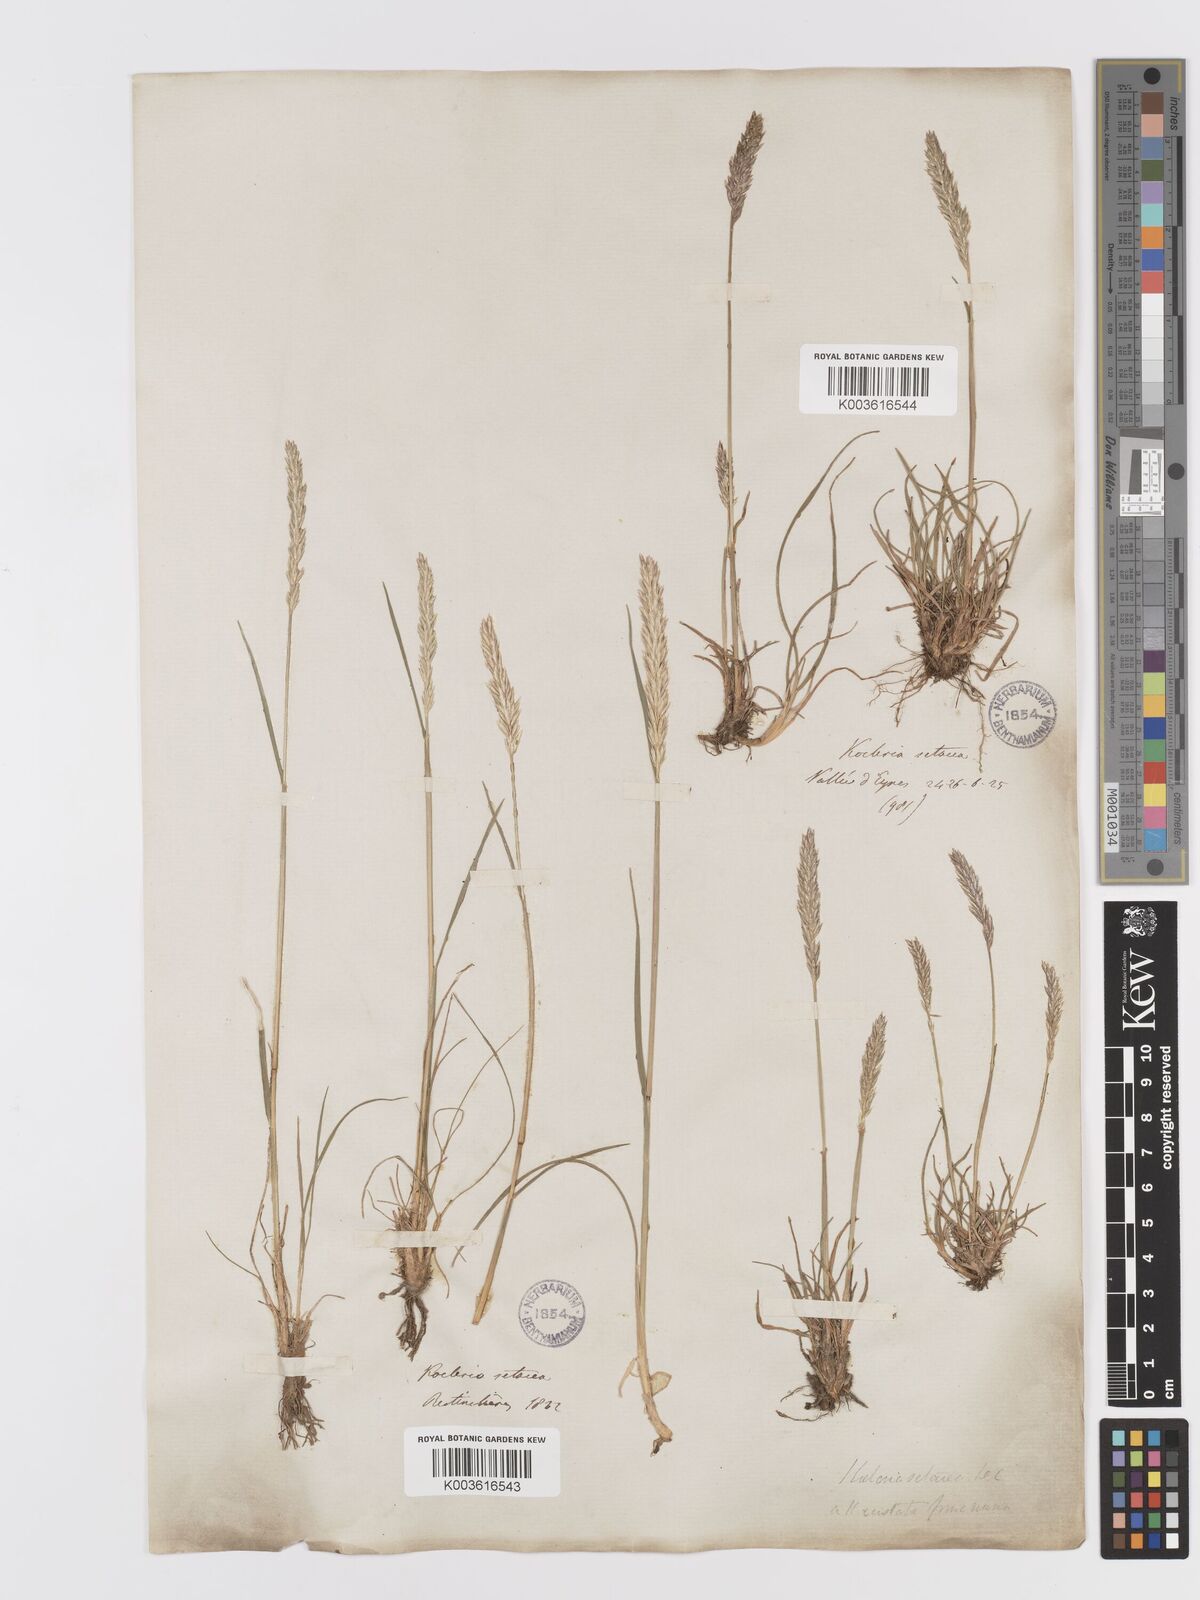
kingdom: Plantae
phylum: Tracheophyta
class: Liliopsida
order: Poales
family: Poaceae
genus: Koeleria
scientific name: Koeleria vallesiana
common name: Somerset hair-grass
